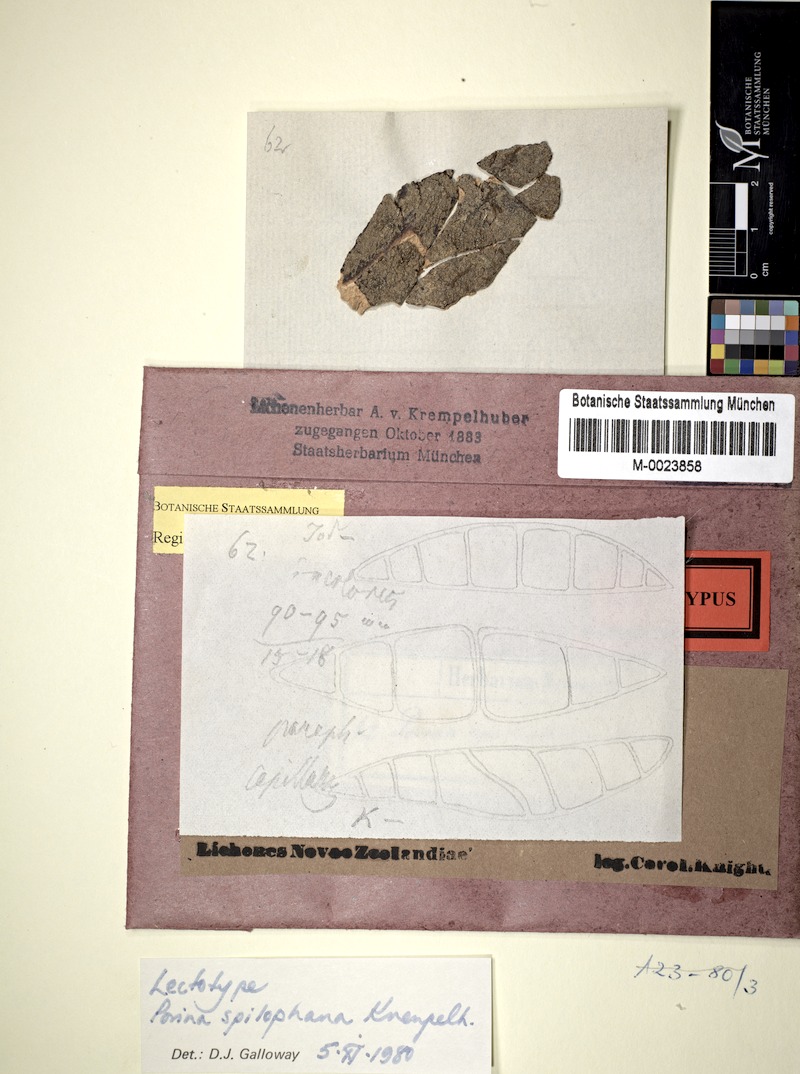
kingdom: Fungi
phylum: Ascomycota
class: Lecanoromycetes
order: Pertusariales
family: Pertusariaceae
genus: Segestria
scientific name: Segestria
